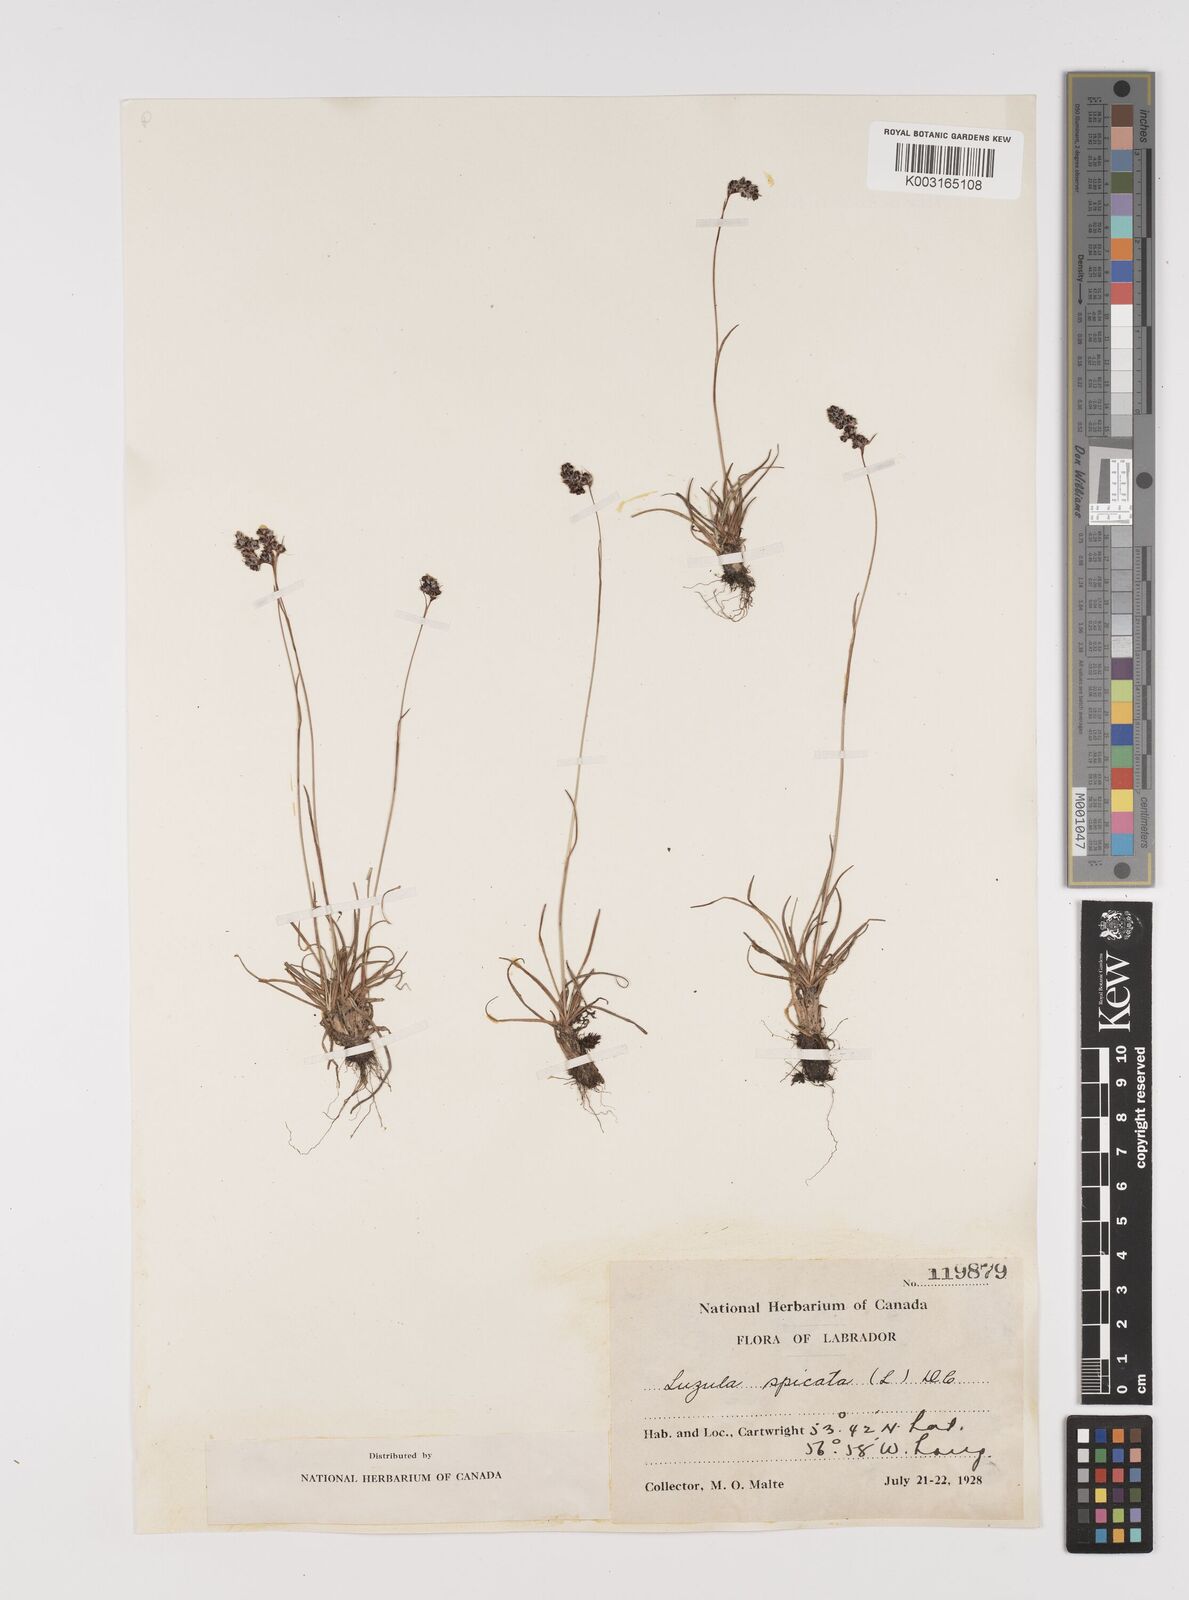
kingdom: Plantae
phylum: Tracheophyta
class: Liliopsida
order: Poales
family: Juncaceae
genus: Luzula
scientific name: Luzula spicata
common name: Spiked wood-rush
